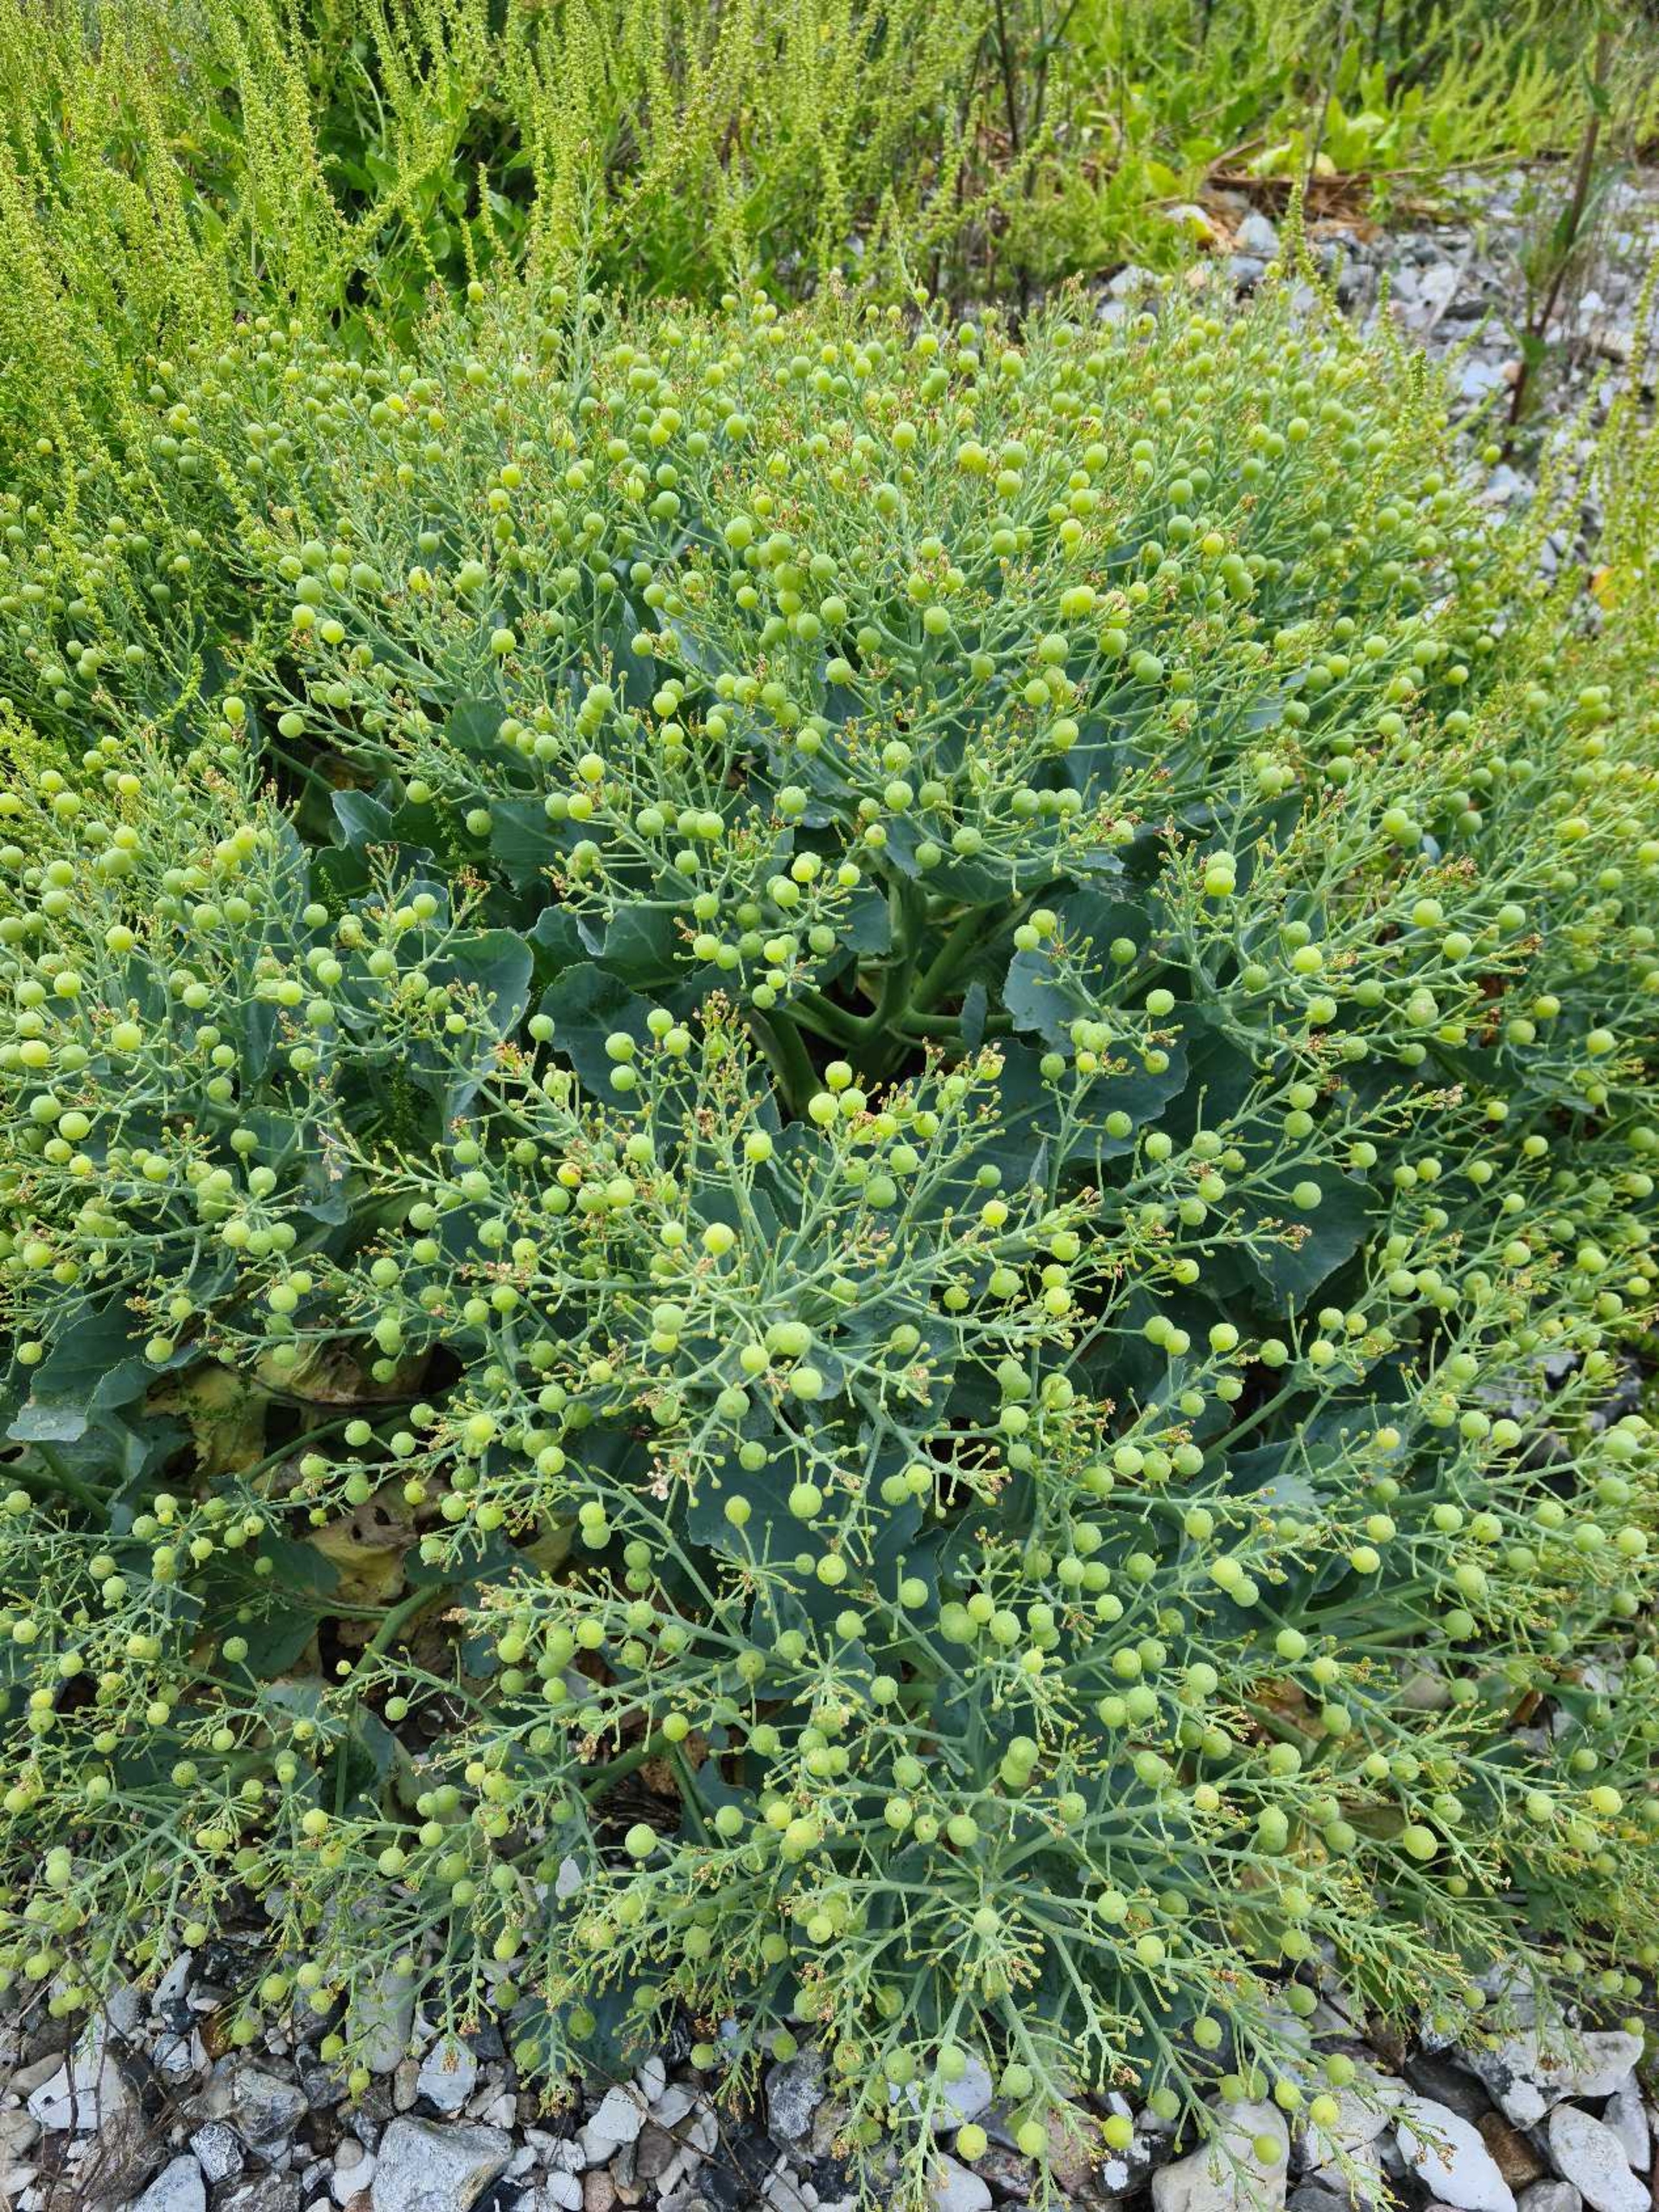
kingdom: Plantae
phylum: Tracheophyta
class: Magnoliopsida
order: Brassicales
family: Brassicaceae
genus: Crambe
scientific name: Crambe maritima
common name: Strandkål
